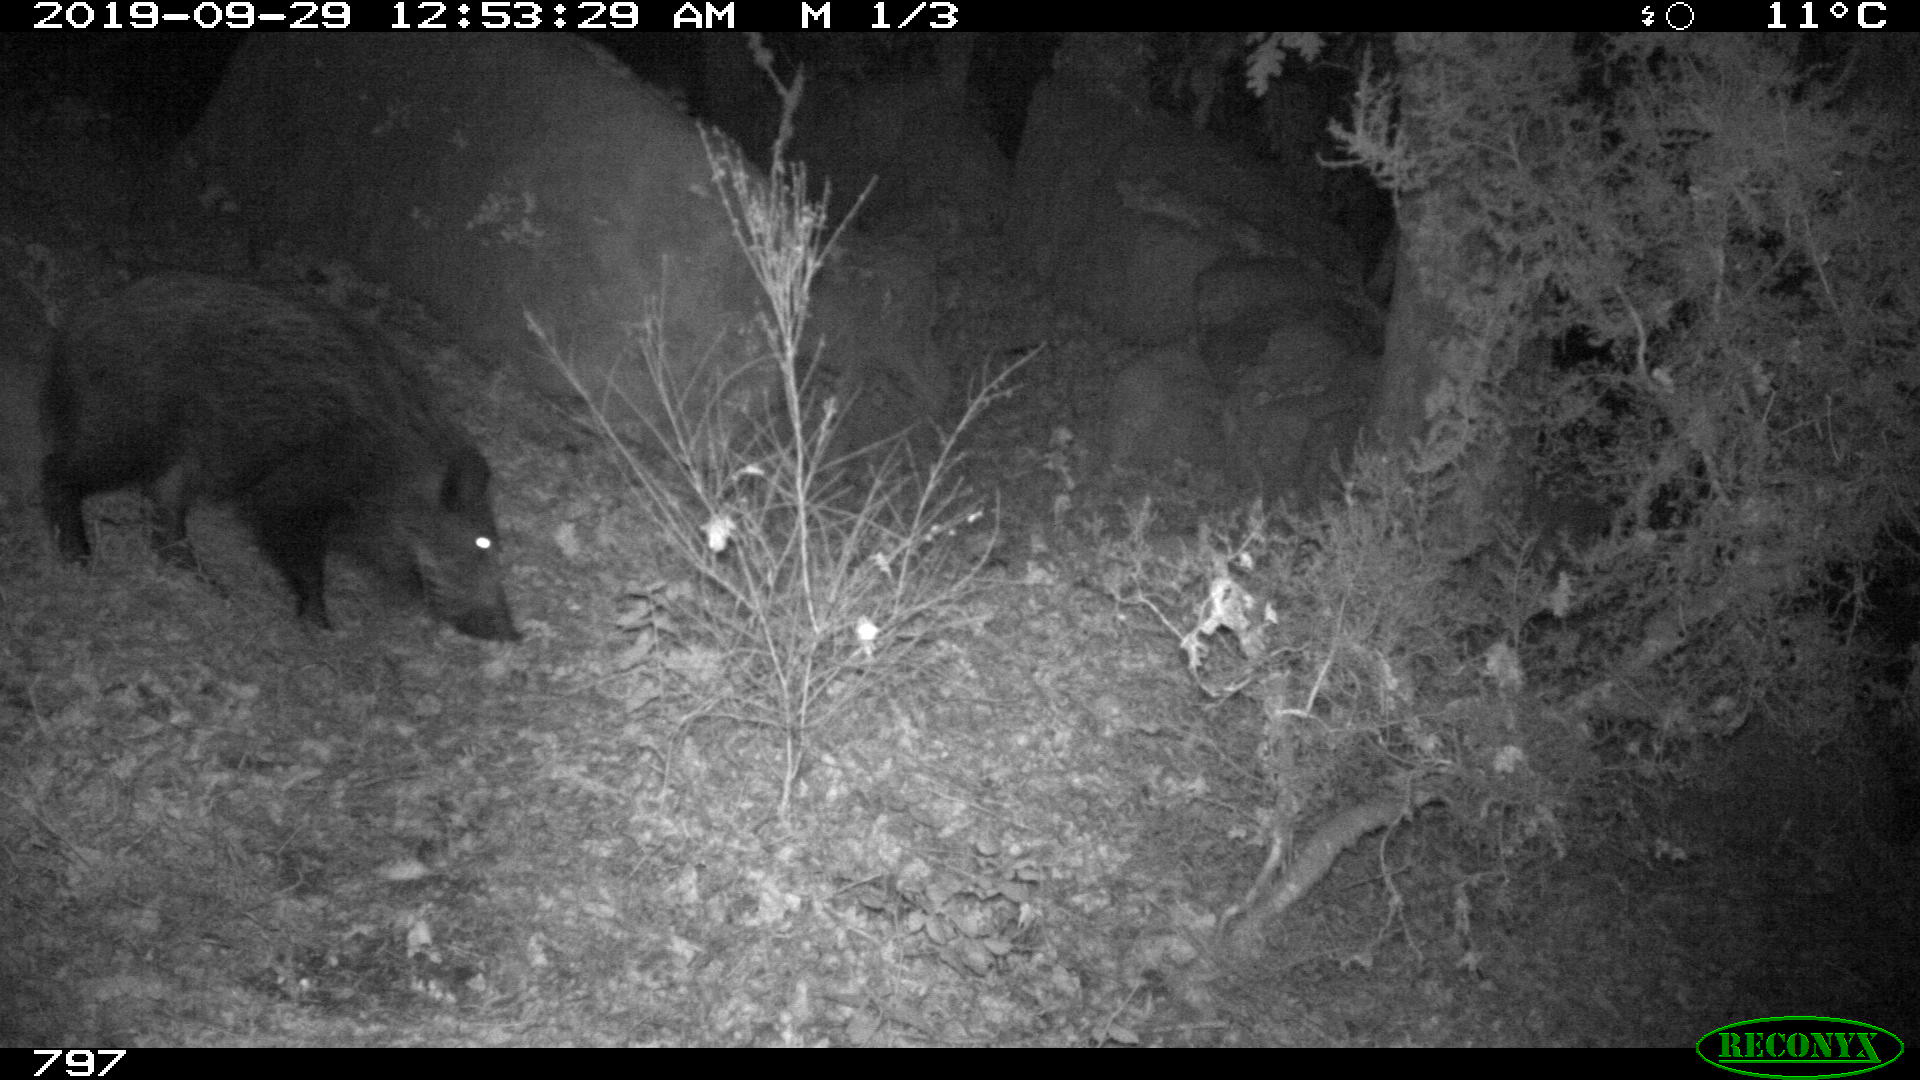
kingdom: Animalia
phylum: Chordata
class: Mammalia
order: Artiodactyla
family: Suidae
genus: Sus
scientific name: Sus scrofa
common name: Wild boar
